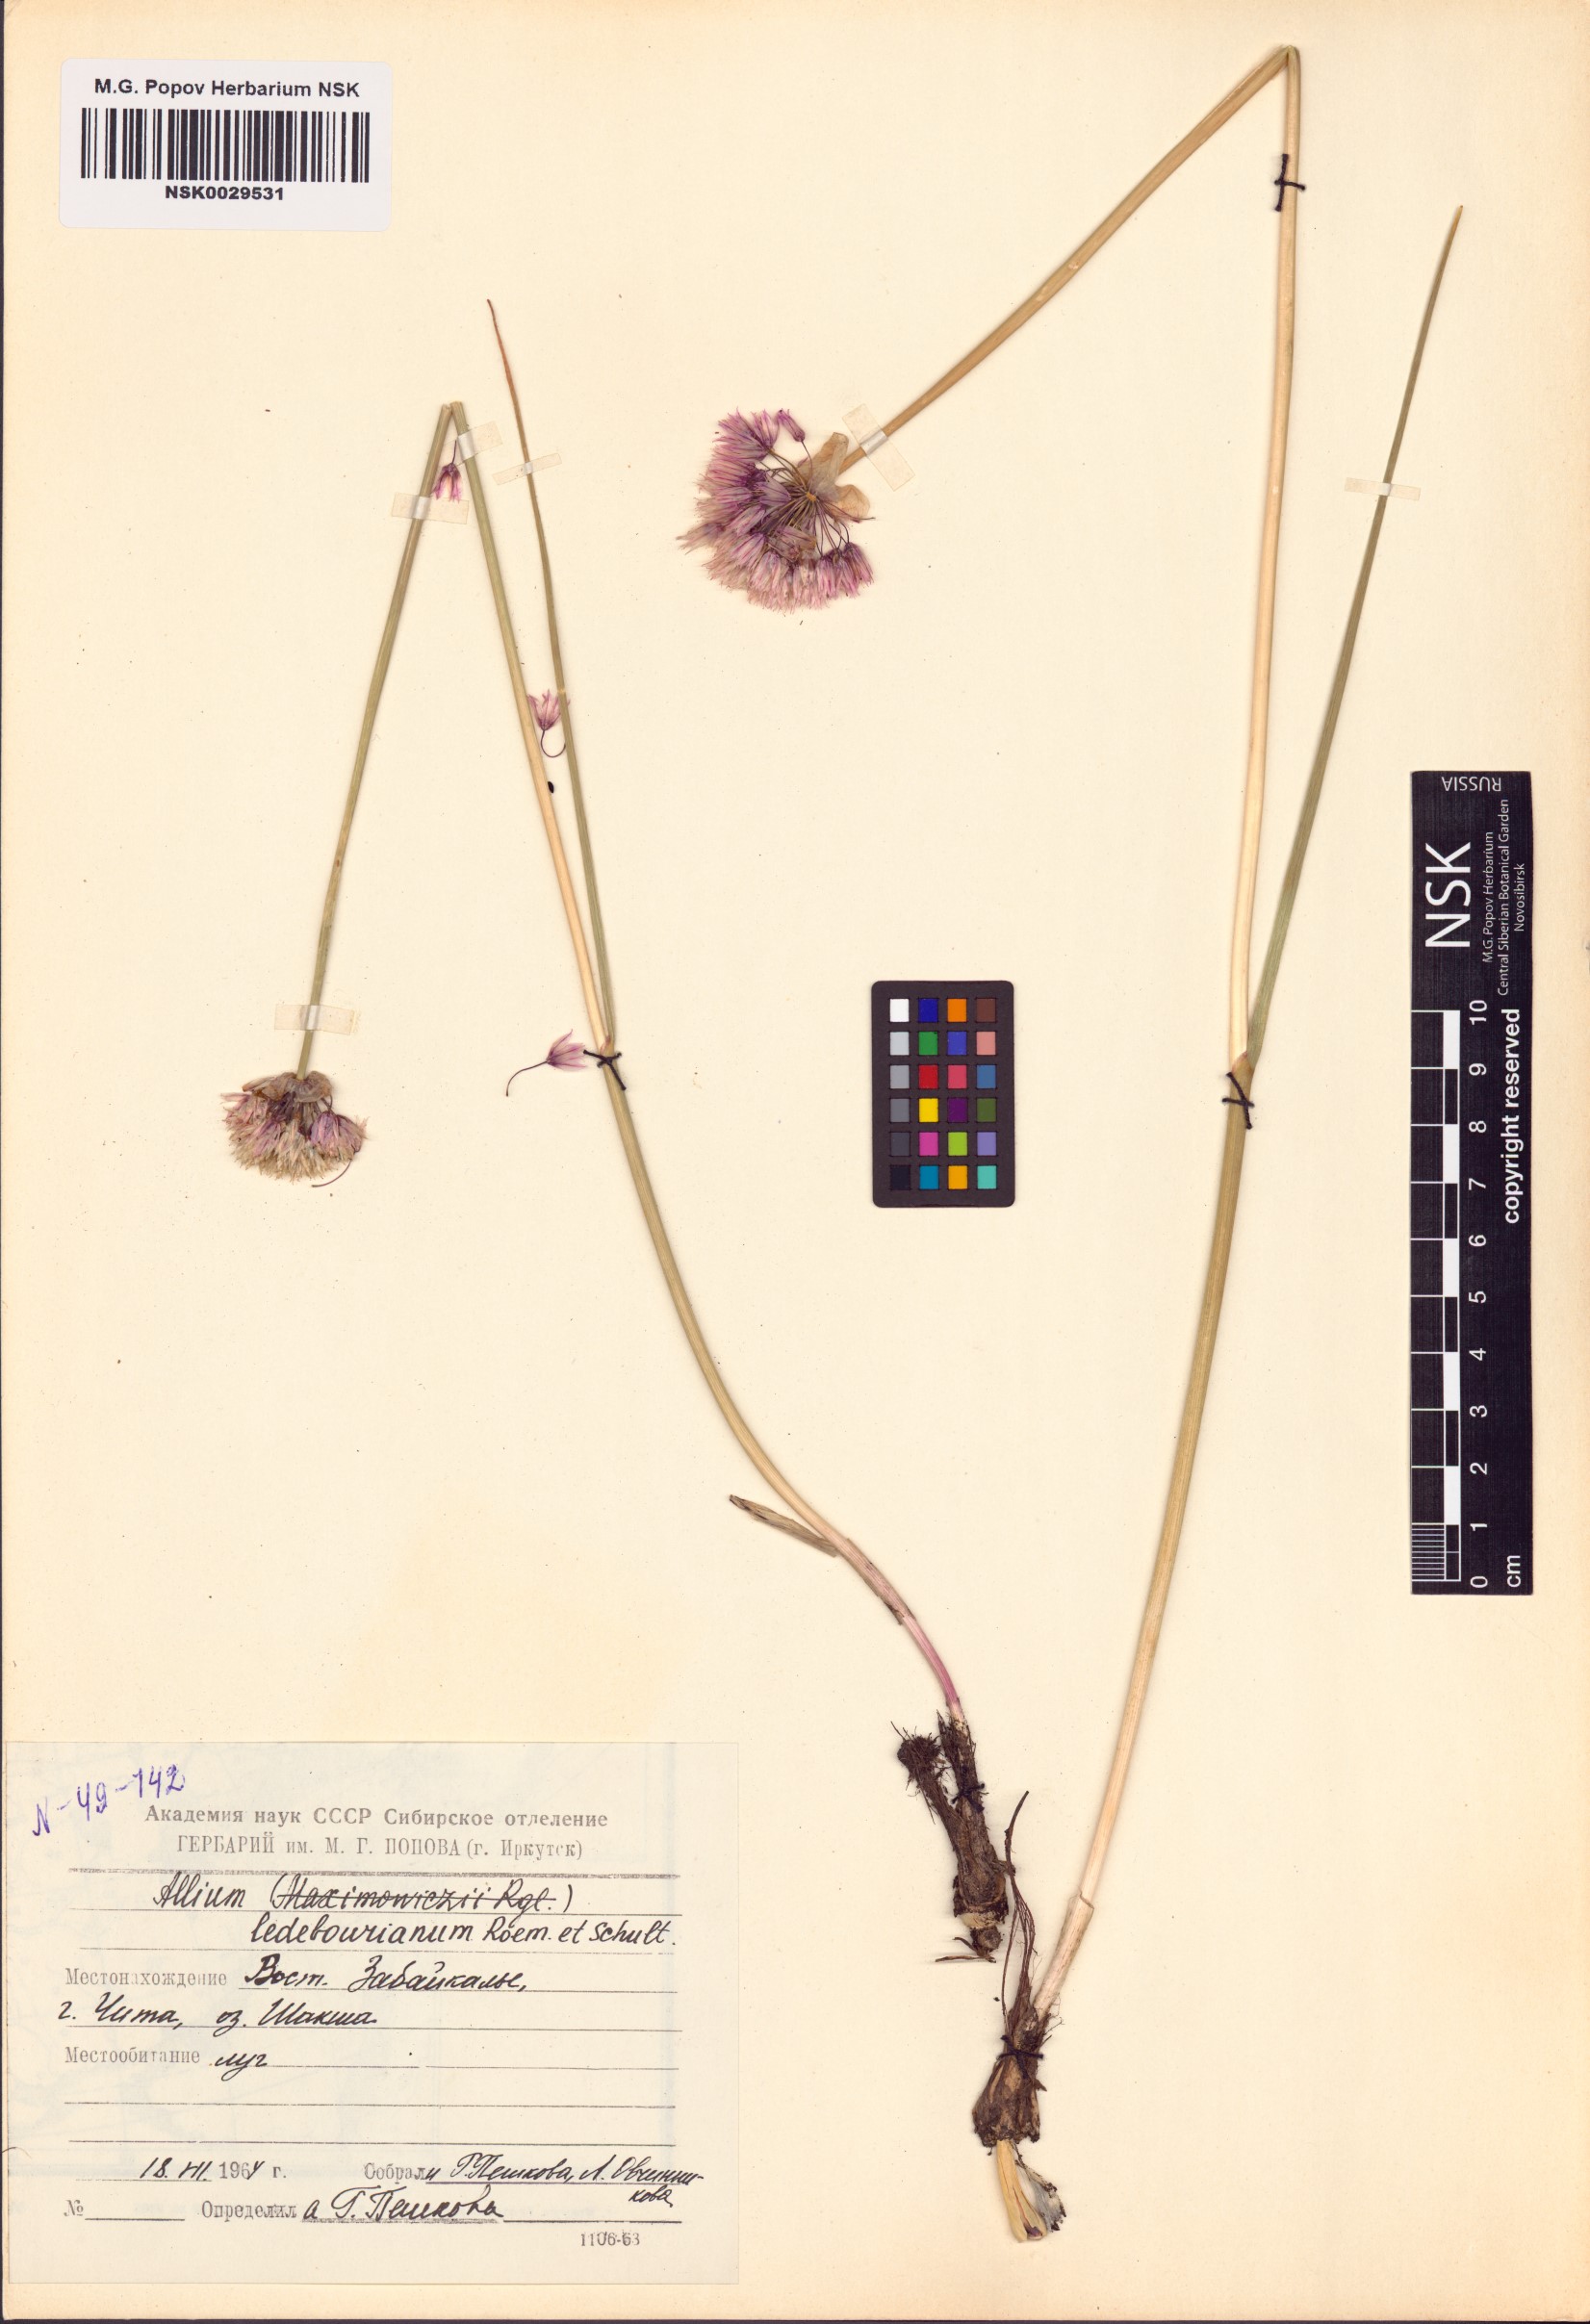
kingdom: Plantae
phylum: Tracheophyta
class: Liliopsida
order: Asparagales
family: Amaryllidaceae
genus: Allium
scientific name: Allium ledebourianum
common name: Ledebour chive
